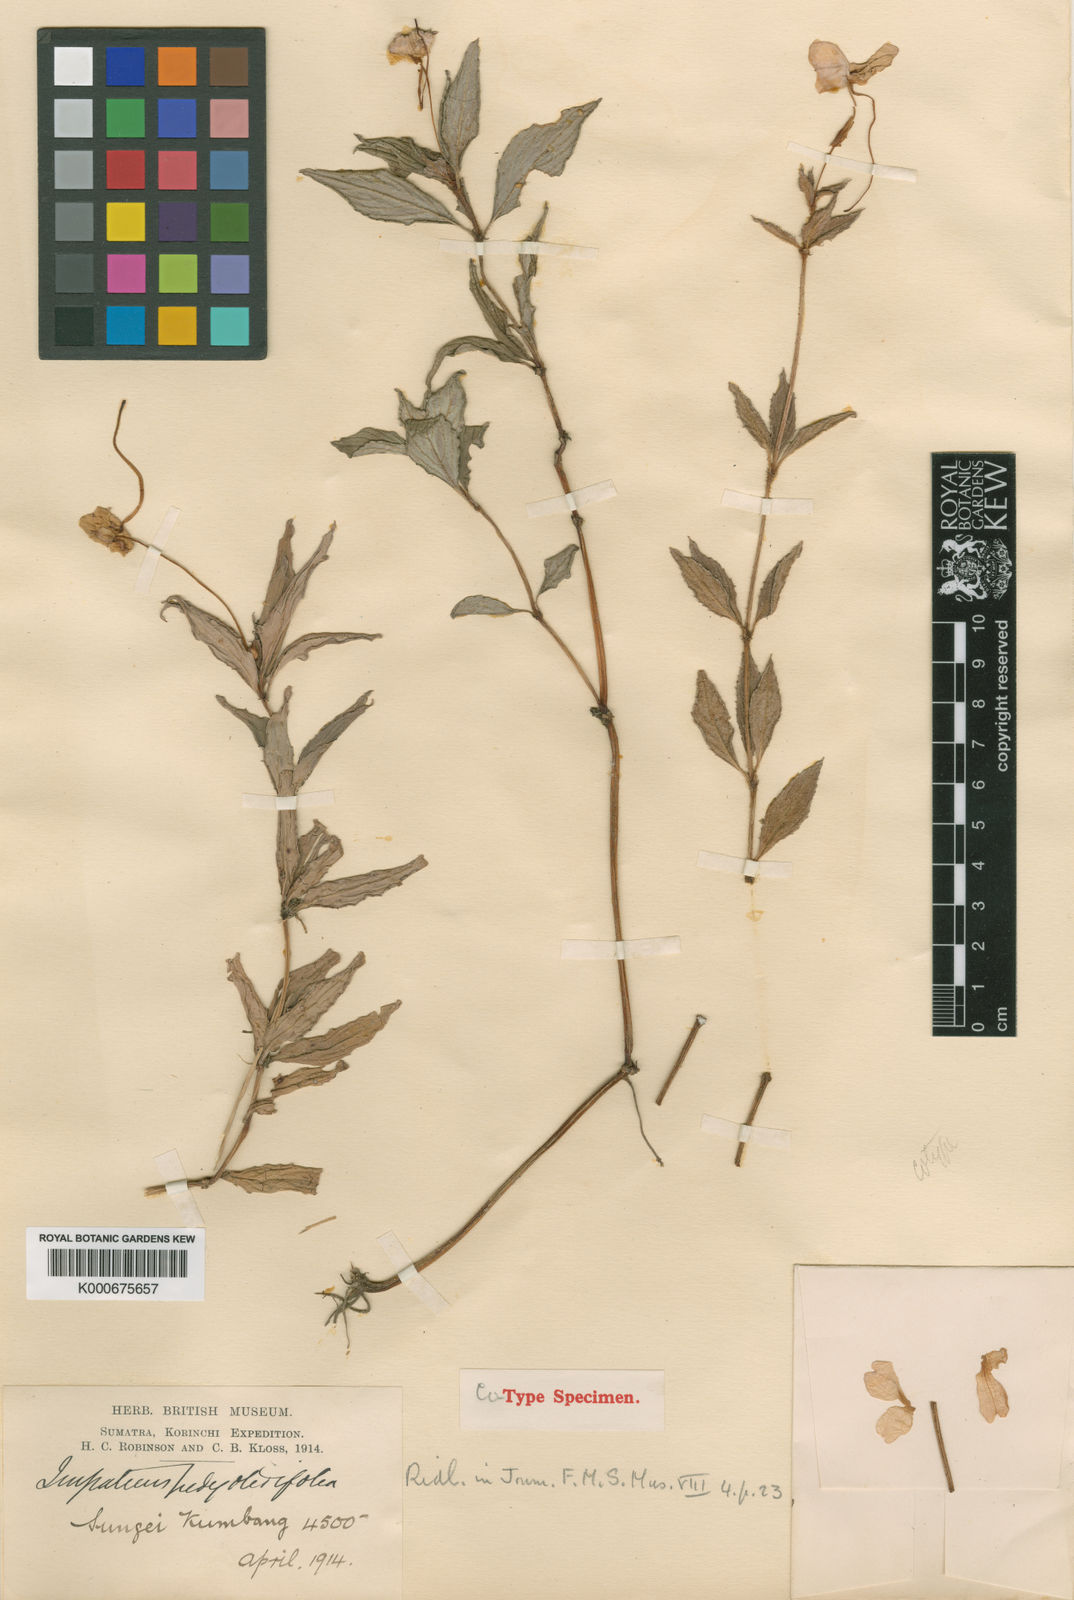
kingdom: Plantae
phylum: Tracheophyta
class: Magnoliopsida
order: Ericales
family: Balsaminaceae
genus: Impatiens
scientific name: Impatiens beccarii
